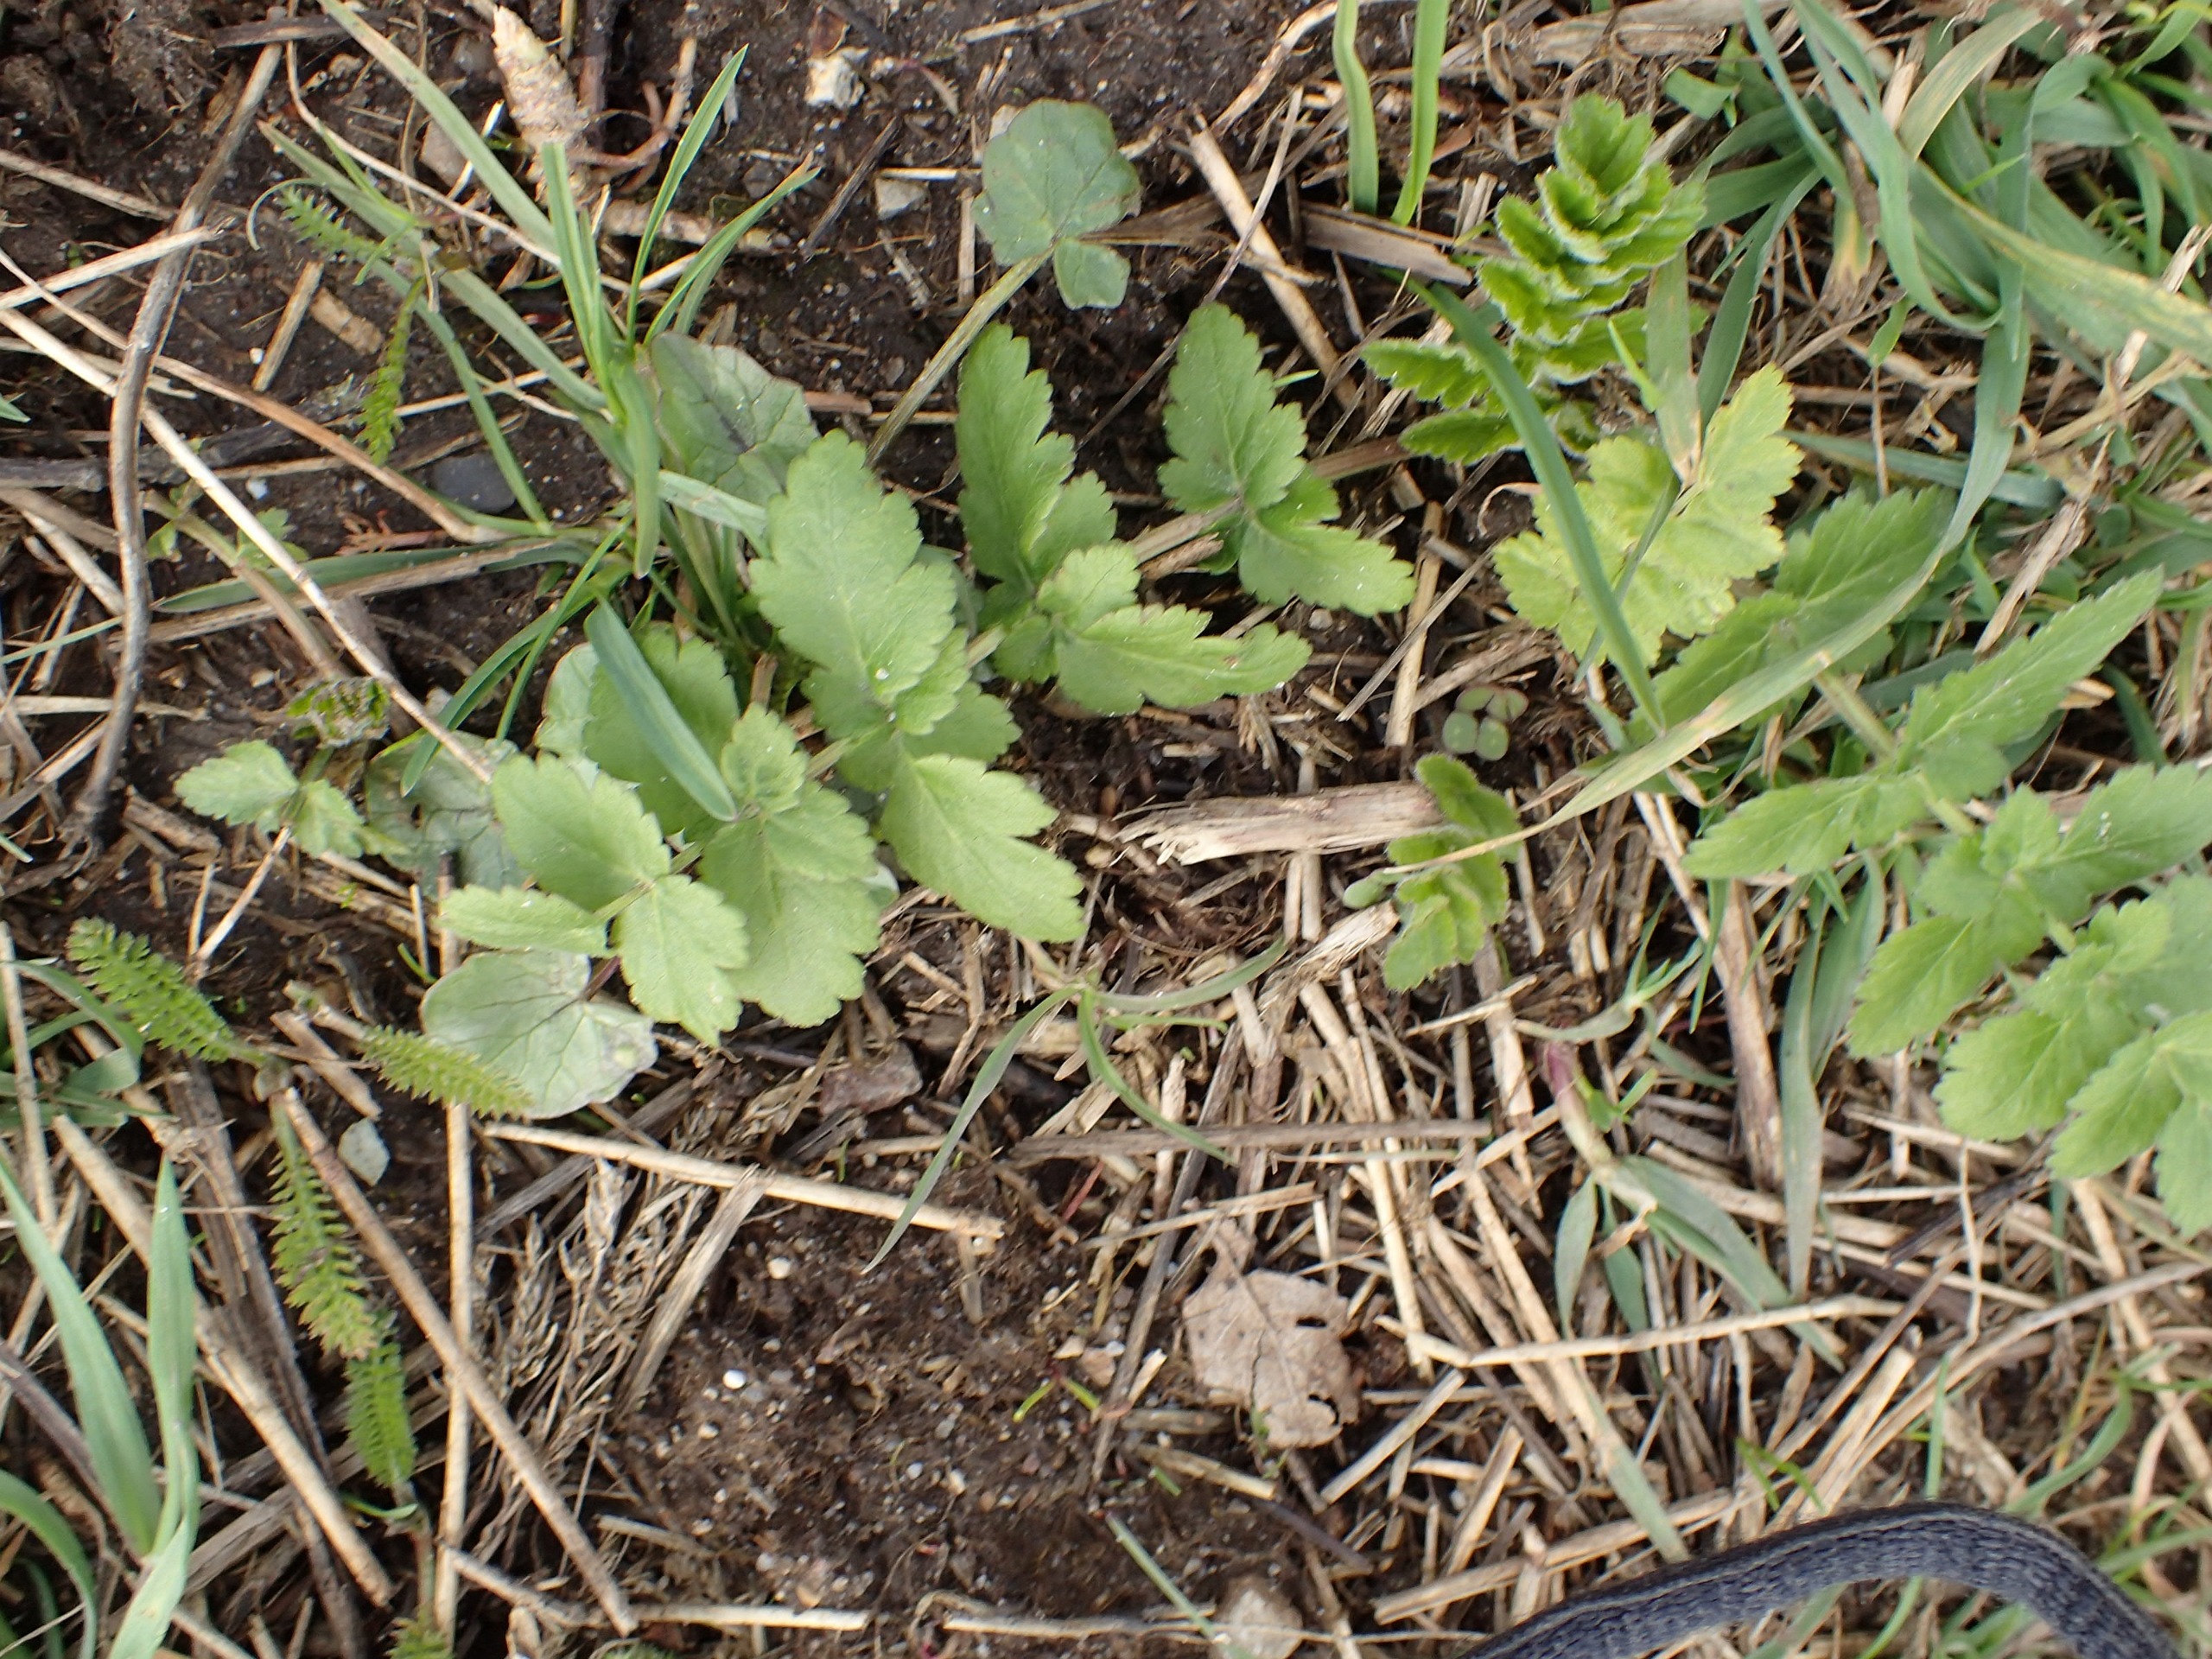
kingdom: Plantae
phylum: Tracheophyta
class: Magnoliopsida
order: Apiales
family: Apiaceae
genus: Pastinaca
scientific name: Pastinaca sativa
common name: Pastinak
